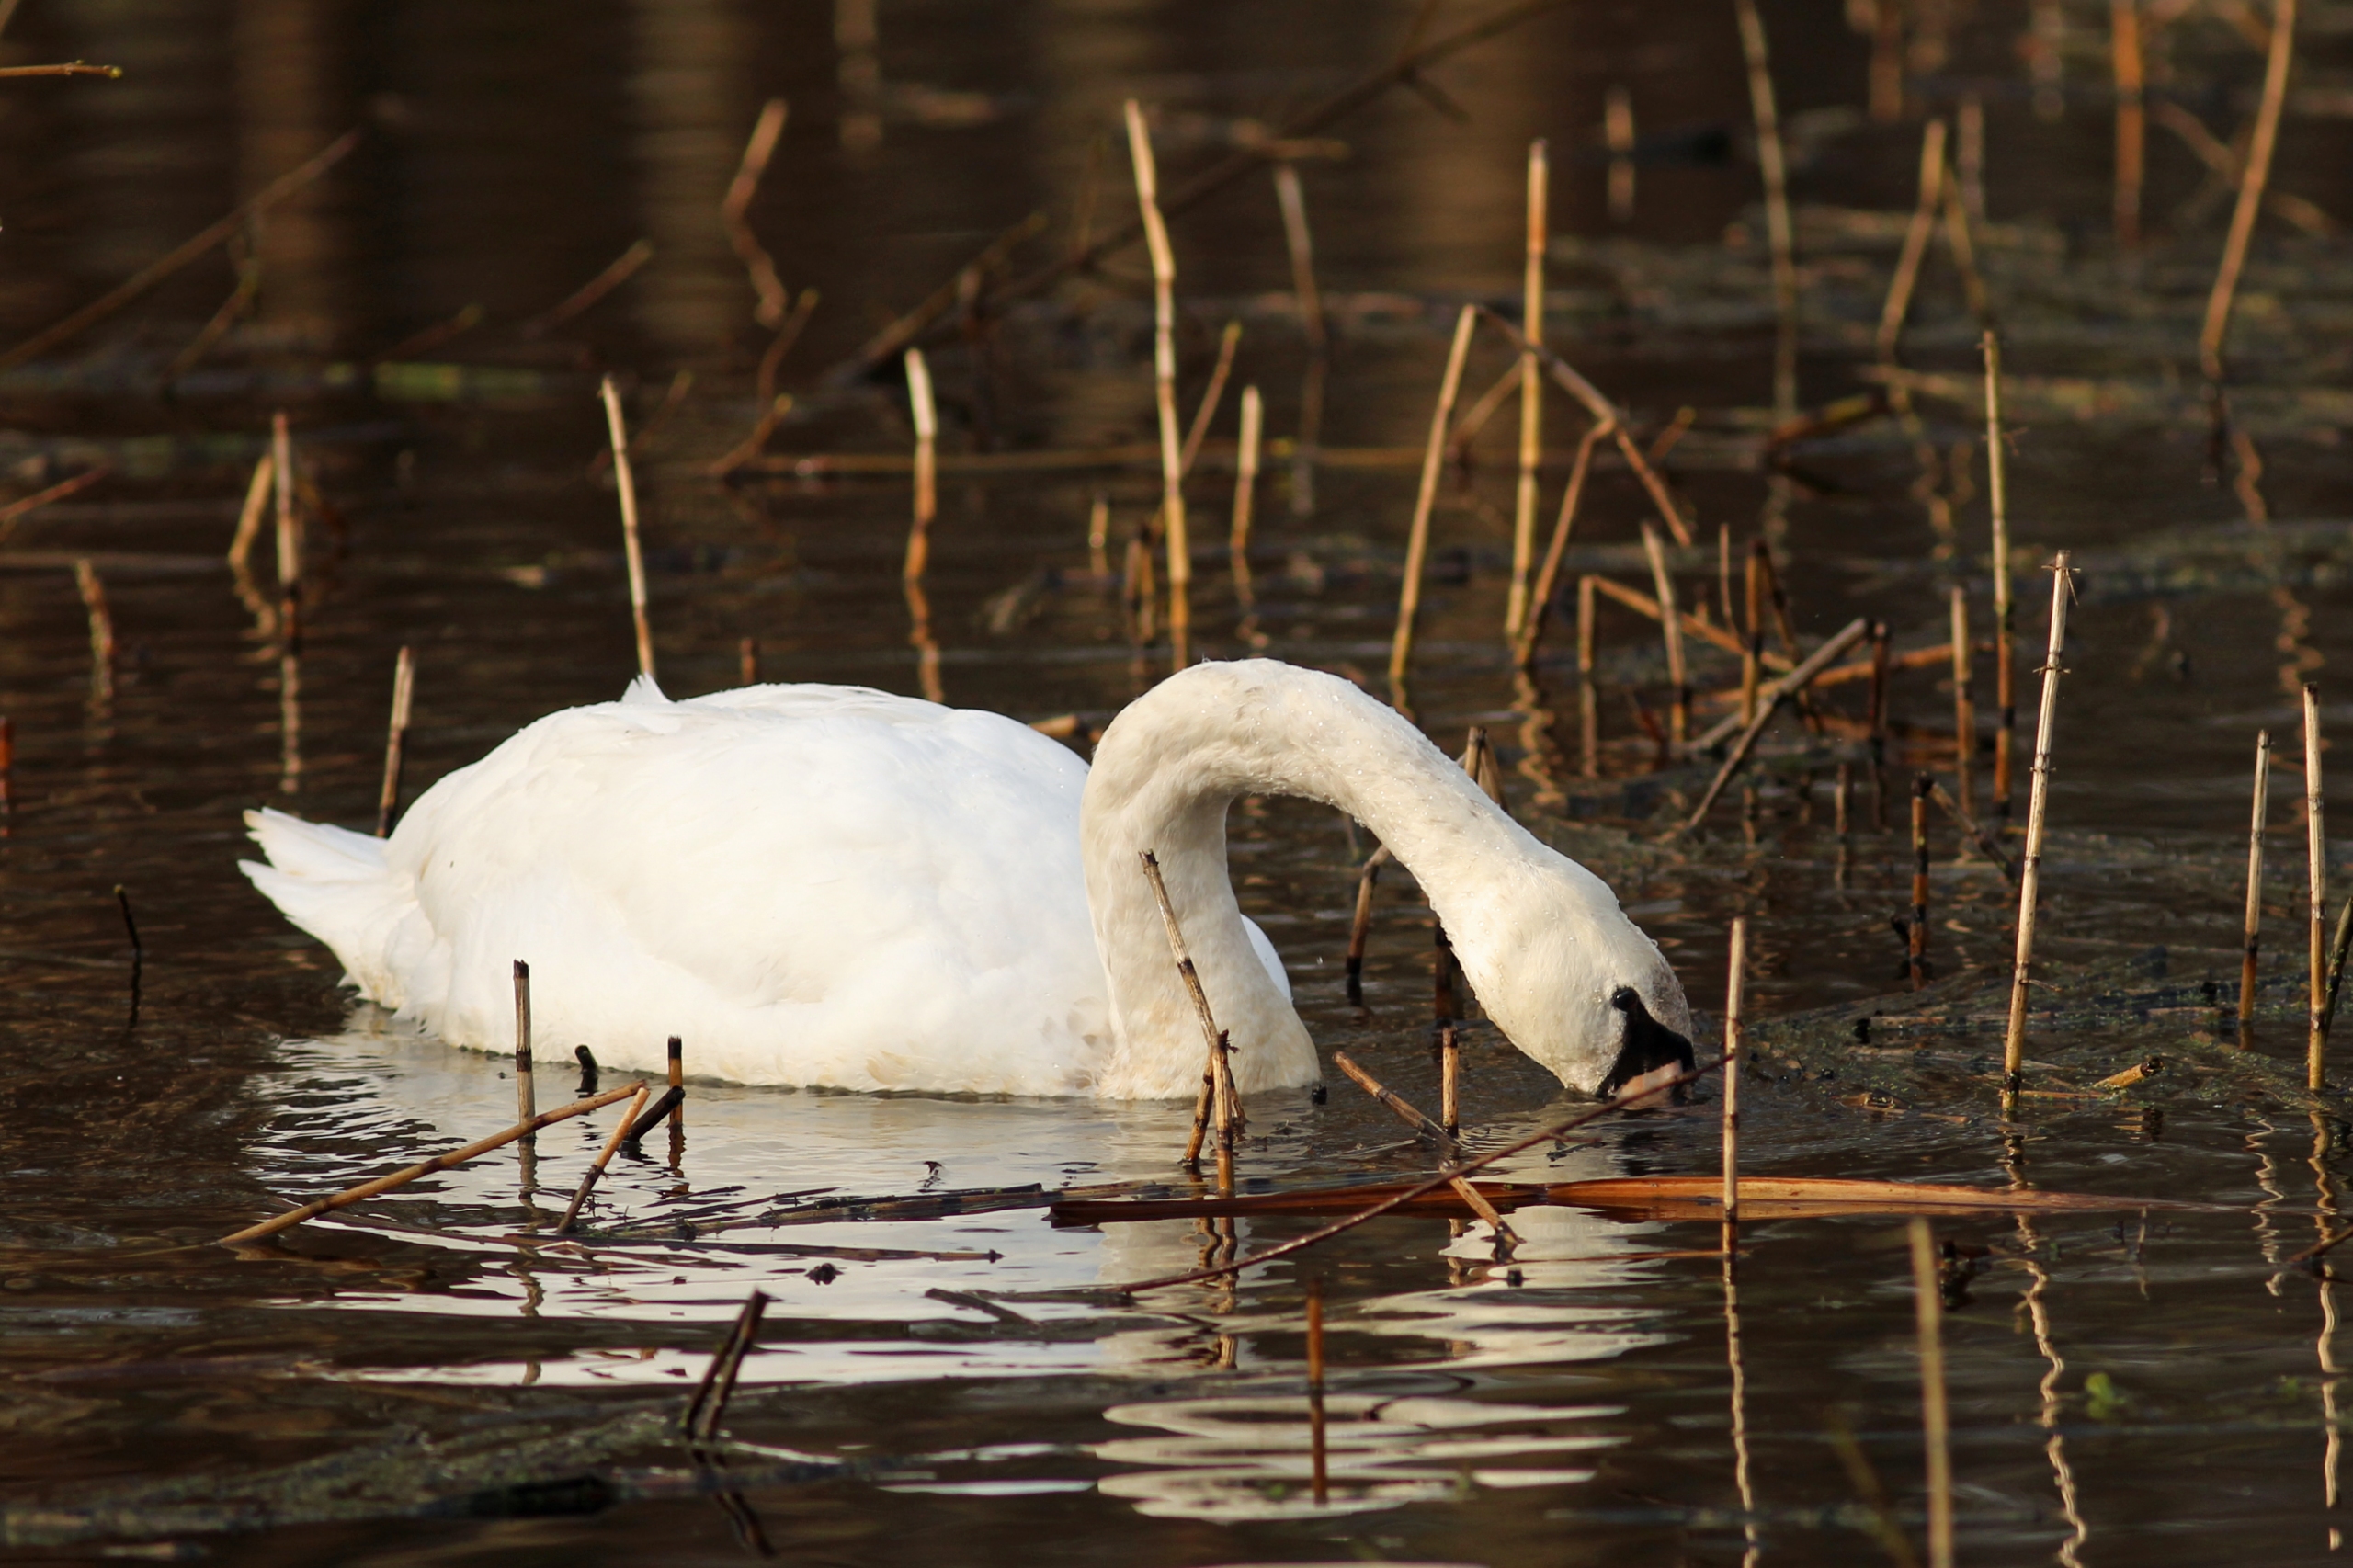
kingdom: Animalia
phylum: Chordata
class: Aves
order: Anseriformes
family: Anatidae
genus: Cygnus
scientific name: Cygnus olor
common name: Knopsvane
